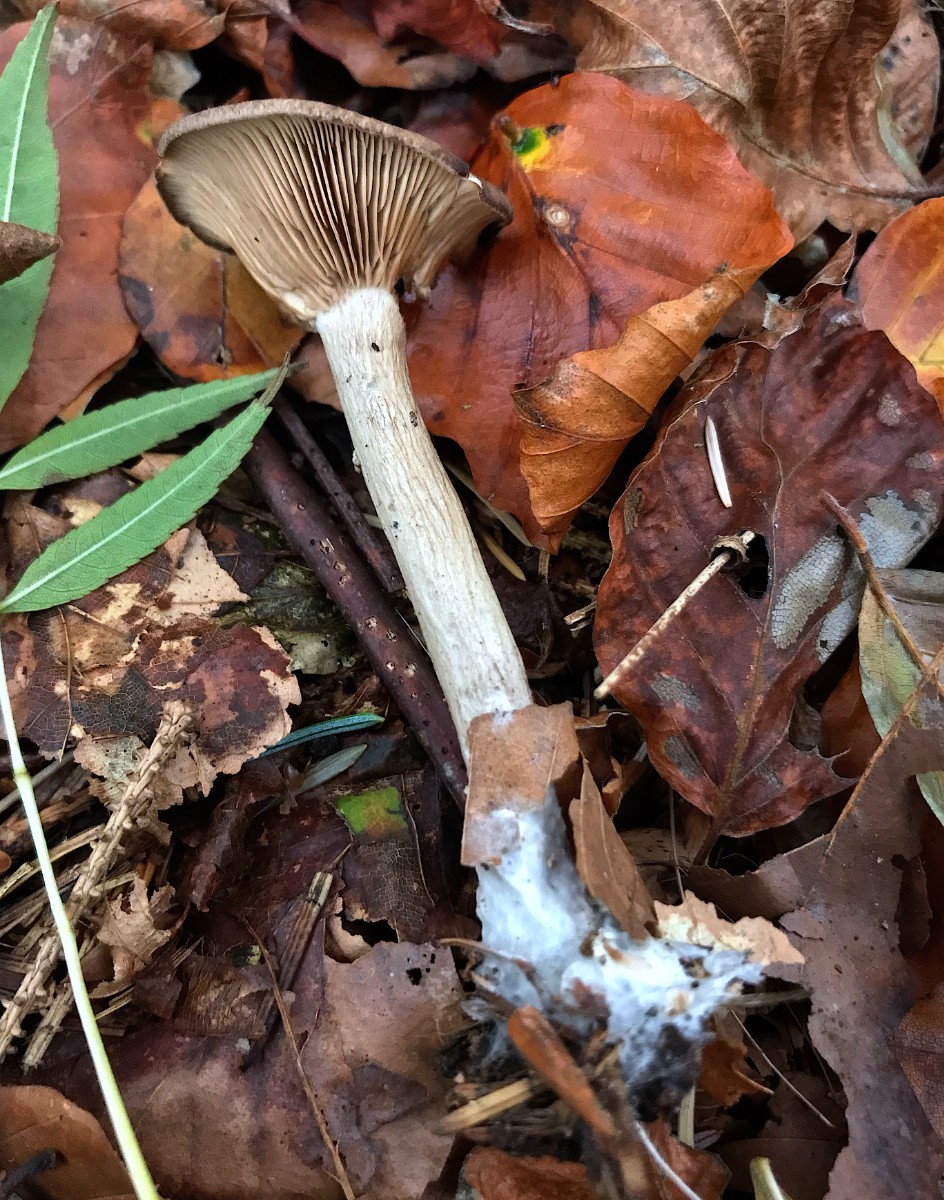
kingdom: Fungi
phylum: Basidiomycota
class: Agaricomycetes
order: Agaricales
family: Pseudoclitocybaceae
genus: Pseudoclitocybe
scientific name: Pseudoclitocybe cyathiformis
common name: almindelig bægertragthat
